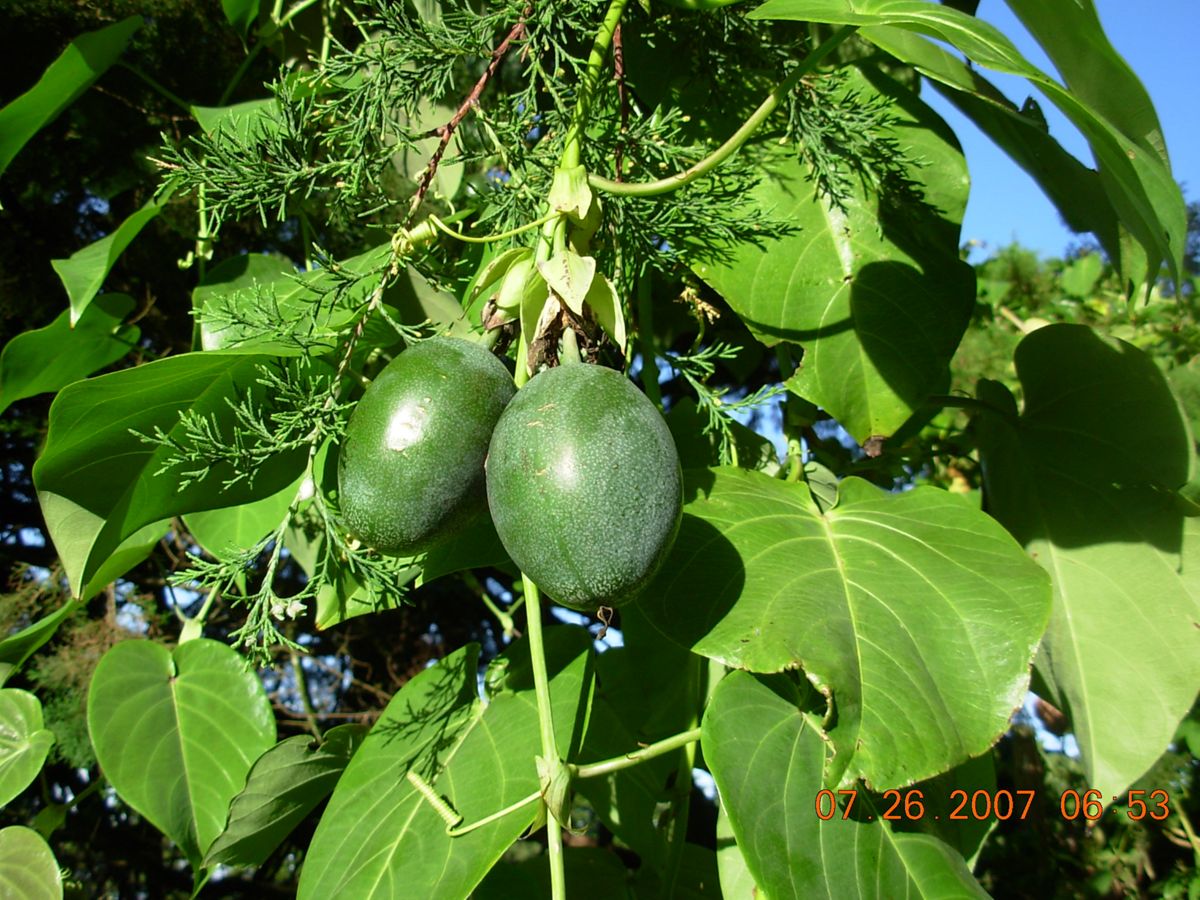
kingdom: Plantae
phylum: Tracheophyta
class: Magnoliopsida
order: Malpighiales
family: Passifloraceae
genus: Passiflora
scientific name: Passiflora ligularis
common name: Sweet granadilla
